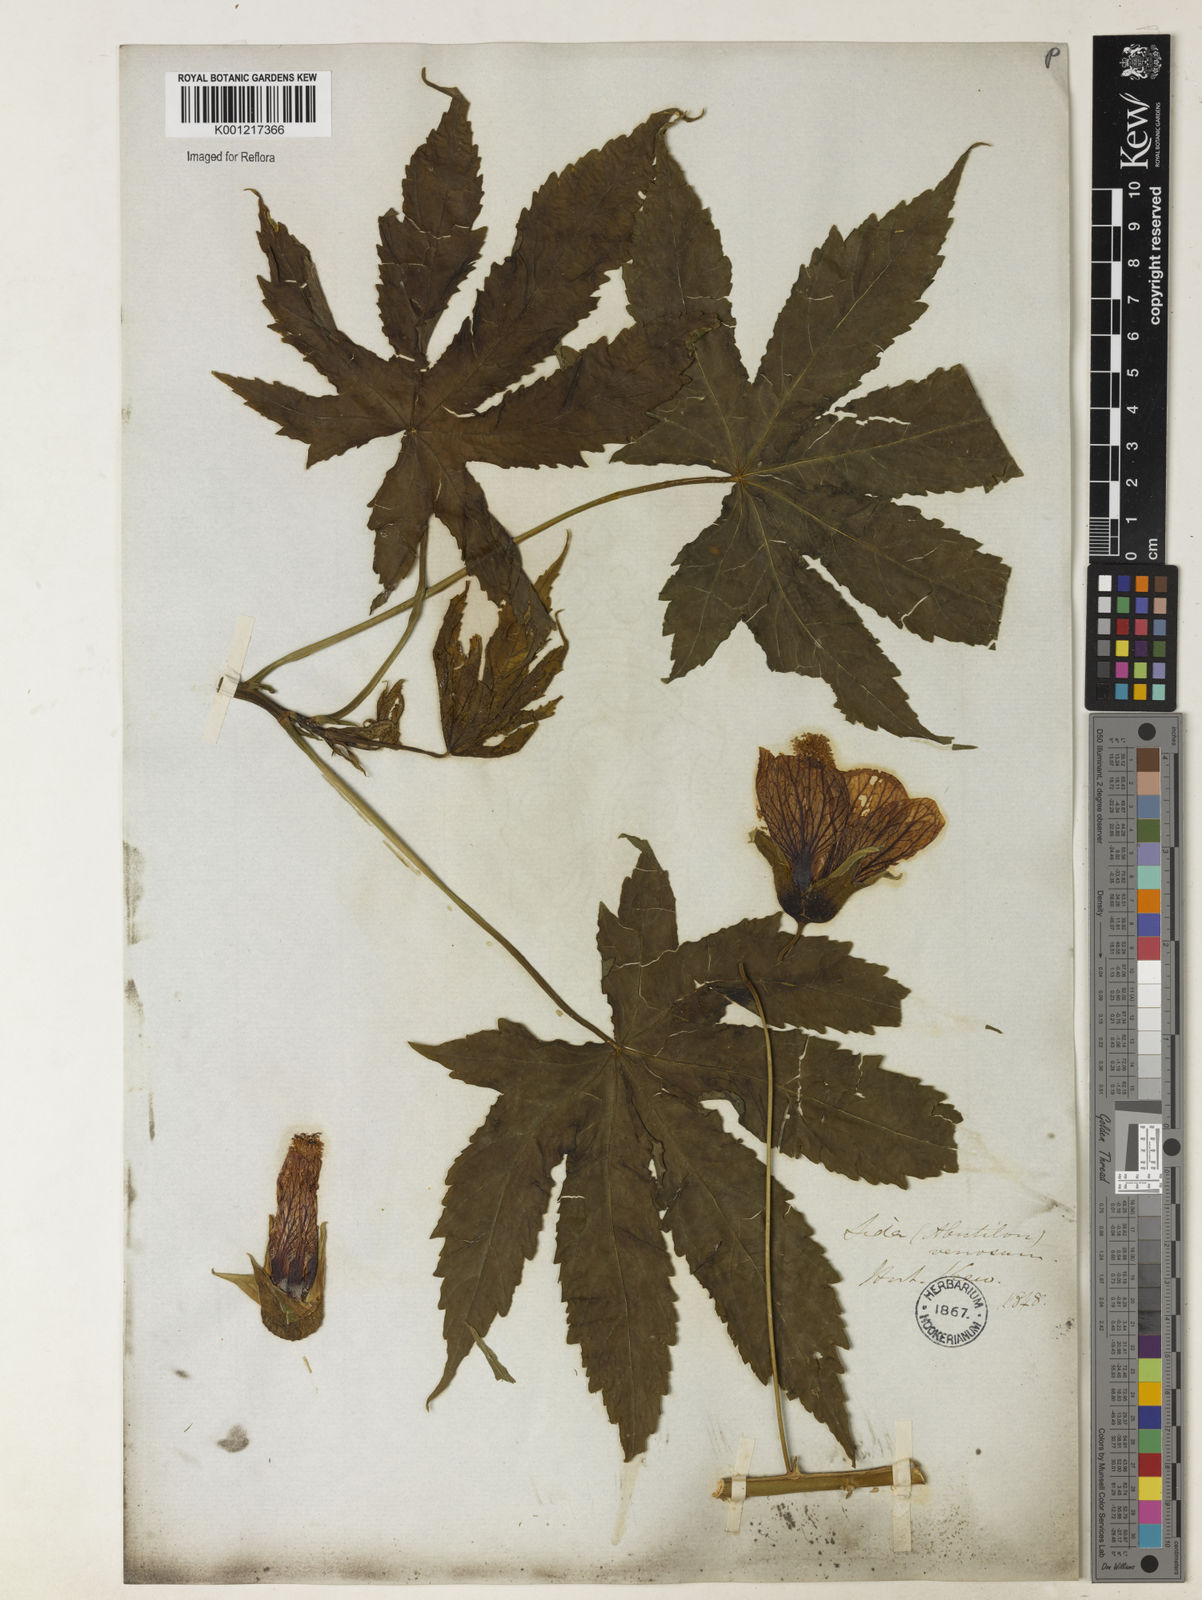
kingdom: Plantae
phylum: Tracheophyta
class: Magnoliopsida
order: Malvales
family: Malvaceae
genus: Callianthe
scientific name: Callianthe striata
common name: Flowering-maple
